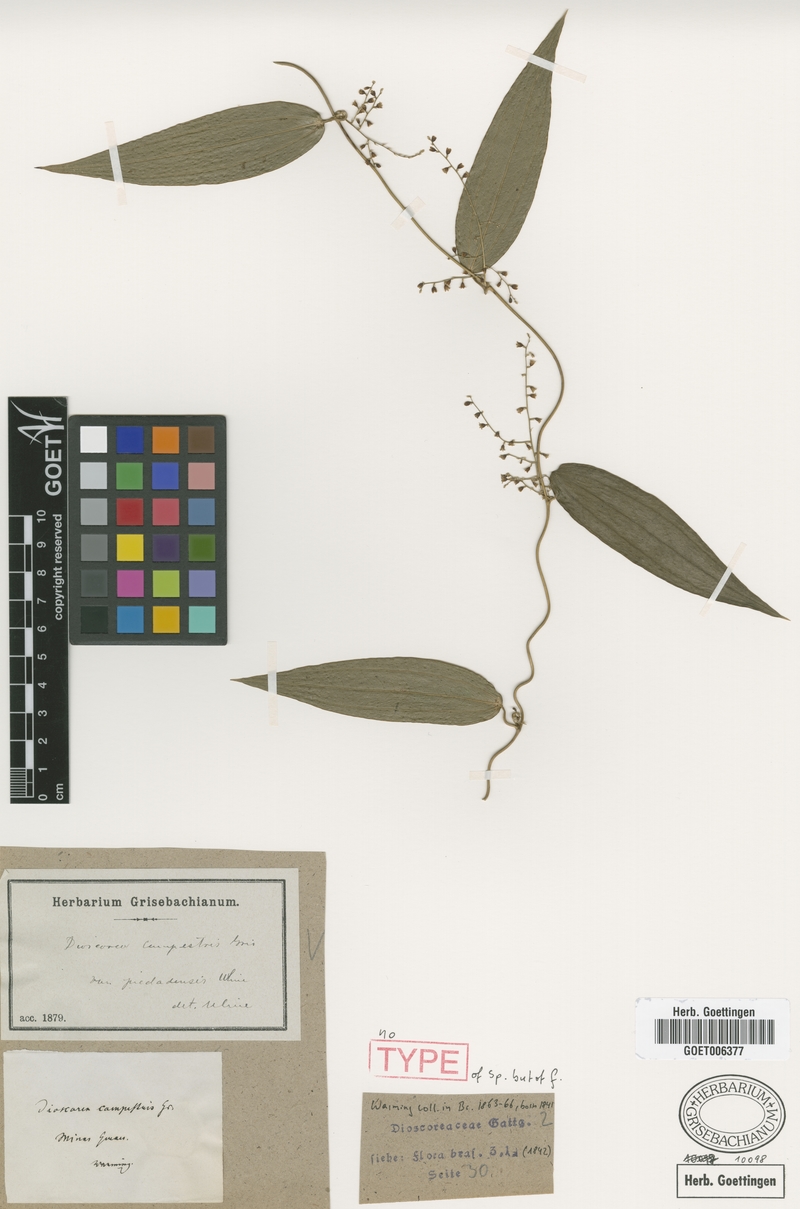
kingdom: Plantae
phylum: Tracheophyta
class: Liliopsida
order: Dioscoreales
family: Dioscoreaceae
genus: Dioscorea
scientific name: Dioscorea campestris
